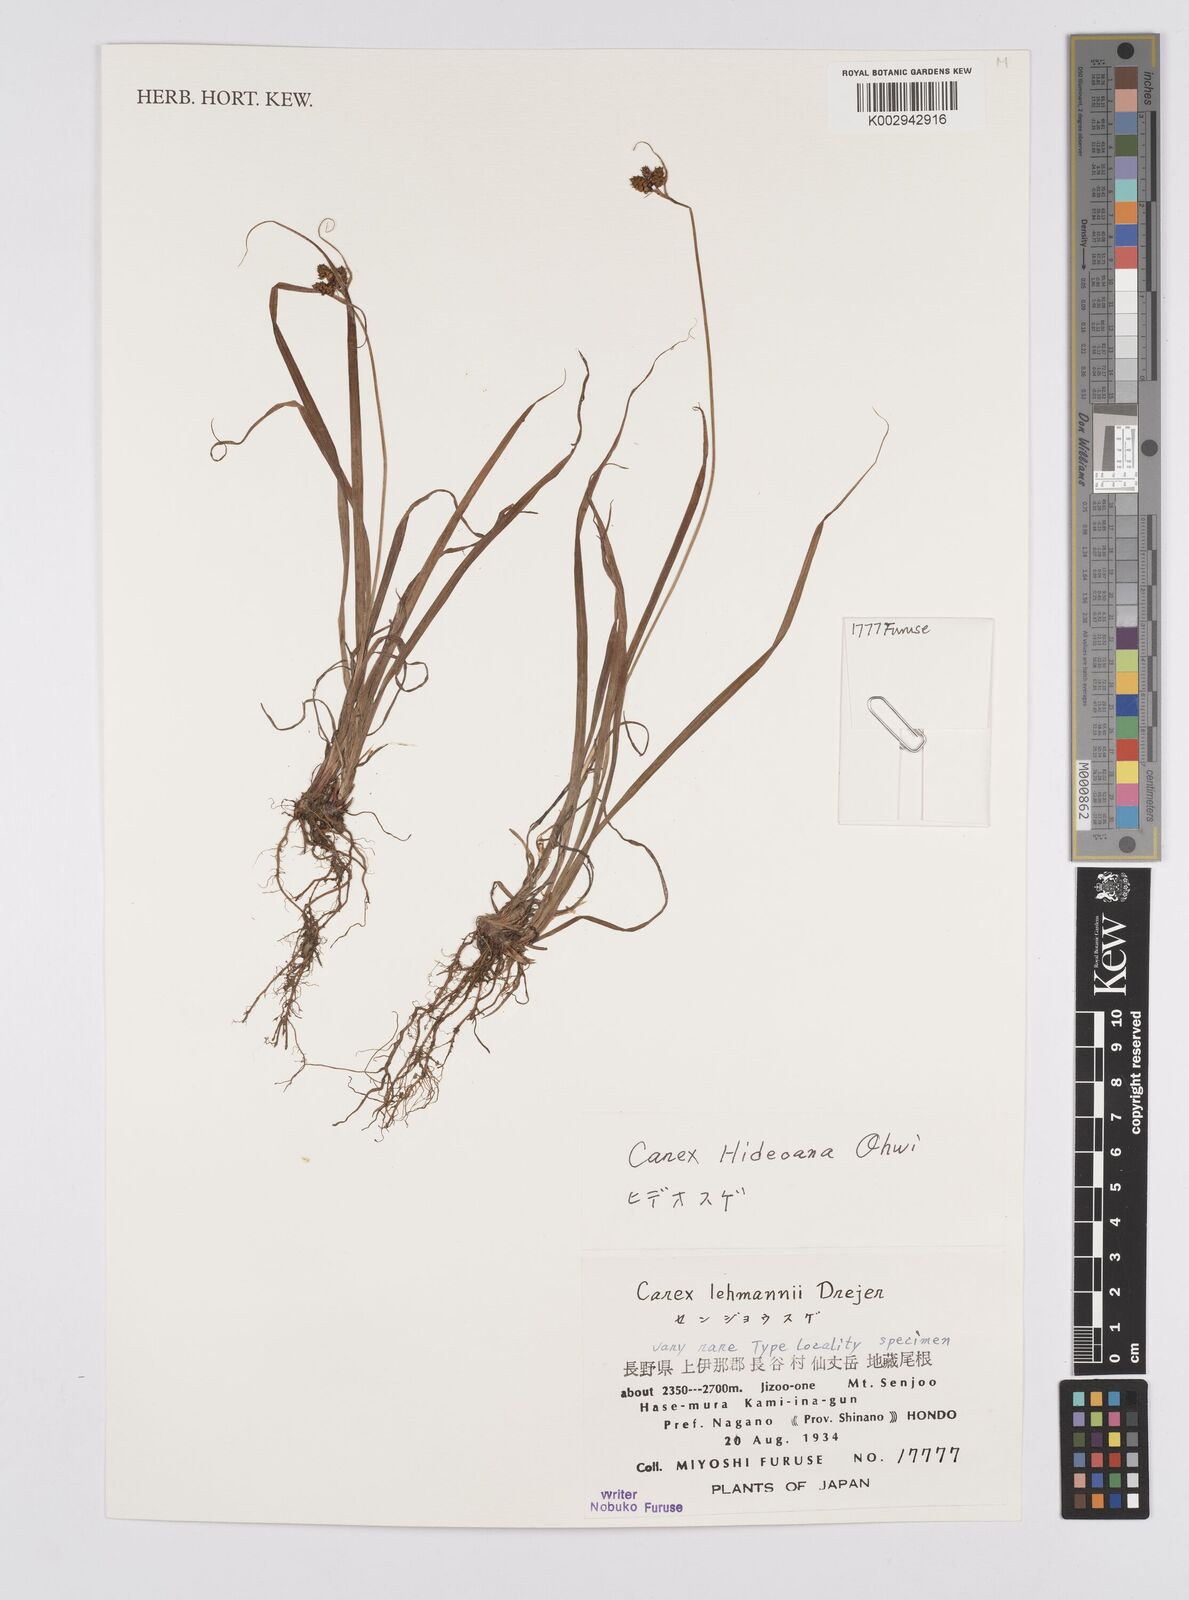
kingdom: Plantae
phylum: Tracheophyta
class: Liliopsida
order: Poales
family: Cyperaceae
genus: Carex
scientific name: Carex
